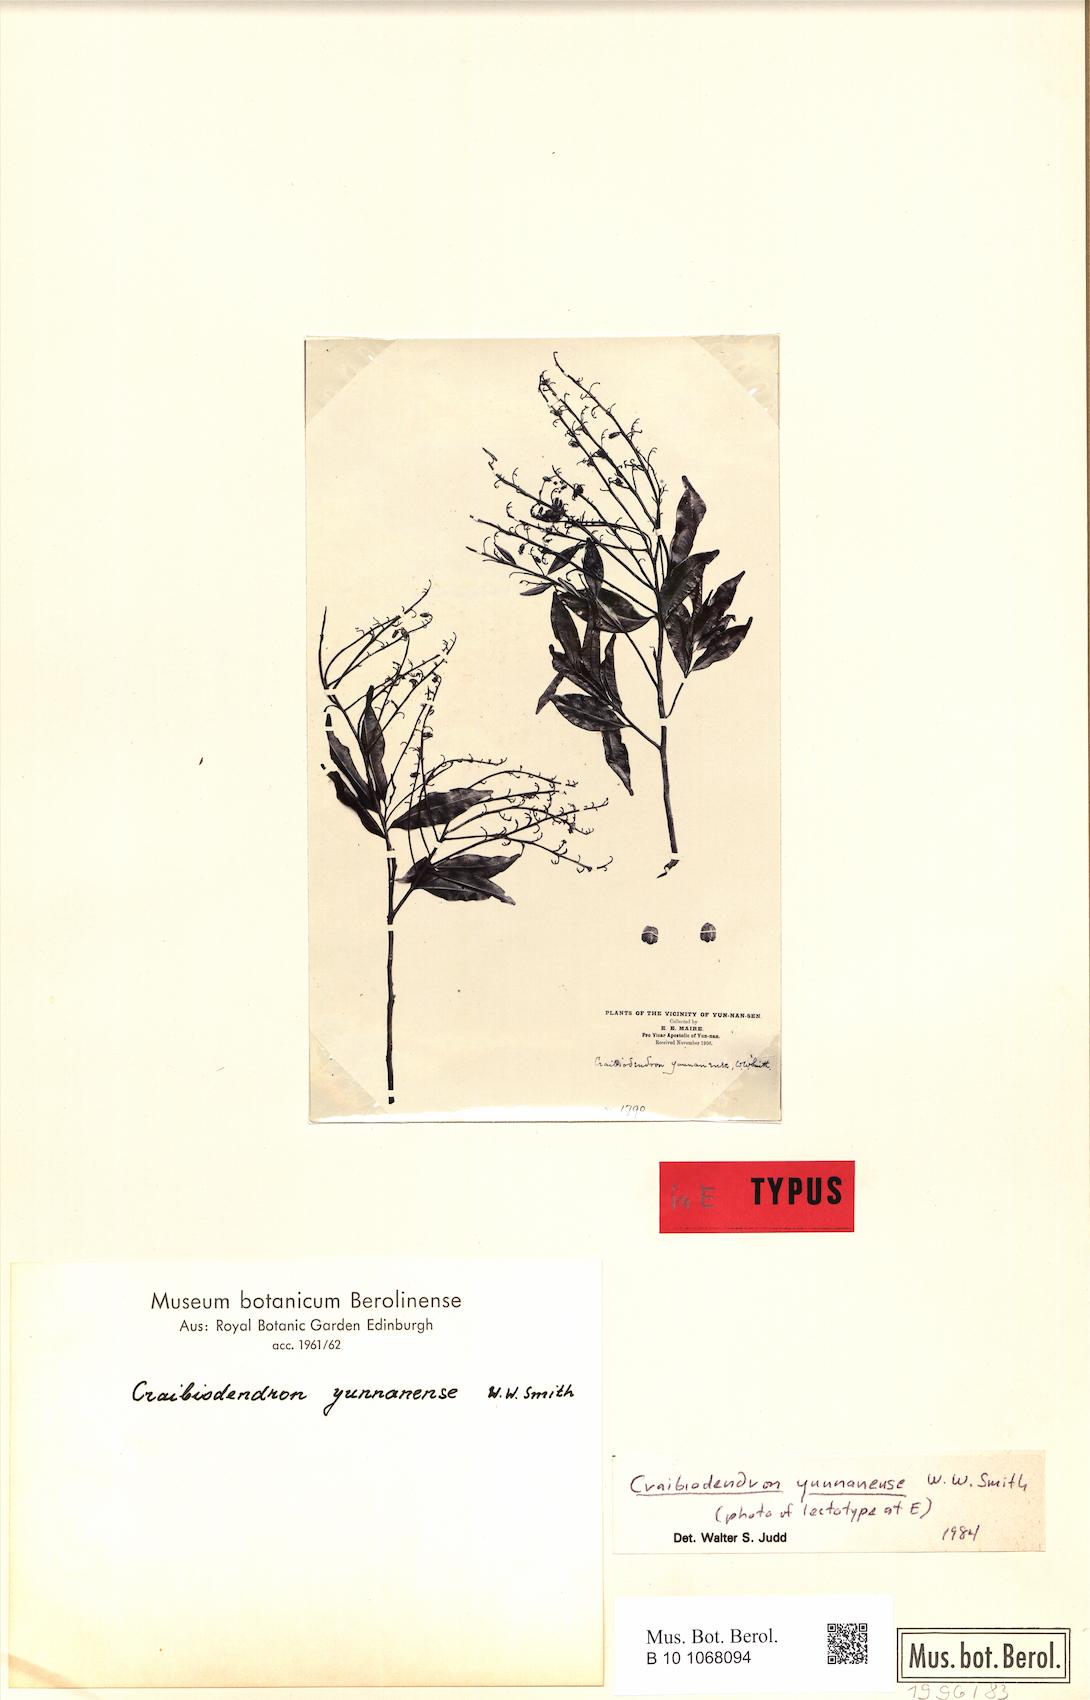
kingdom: Plantae
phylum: Tracheophyta
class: Magnoliopsida
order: Ericales
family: Ericaceae
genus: Craibiodendron
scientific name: Craibiodendron yunnanense
